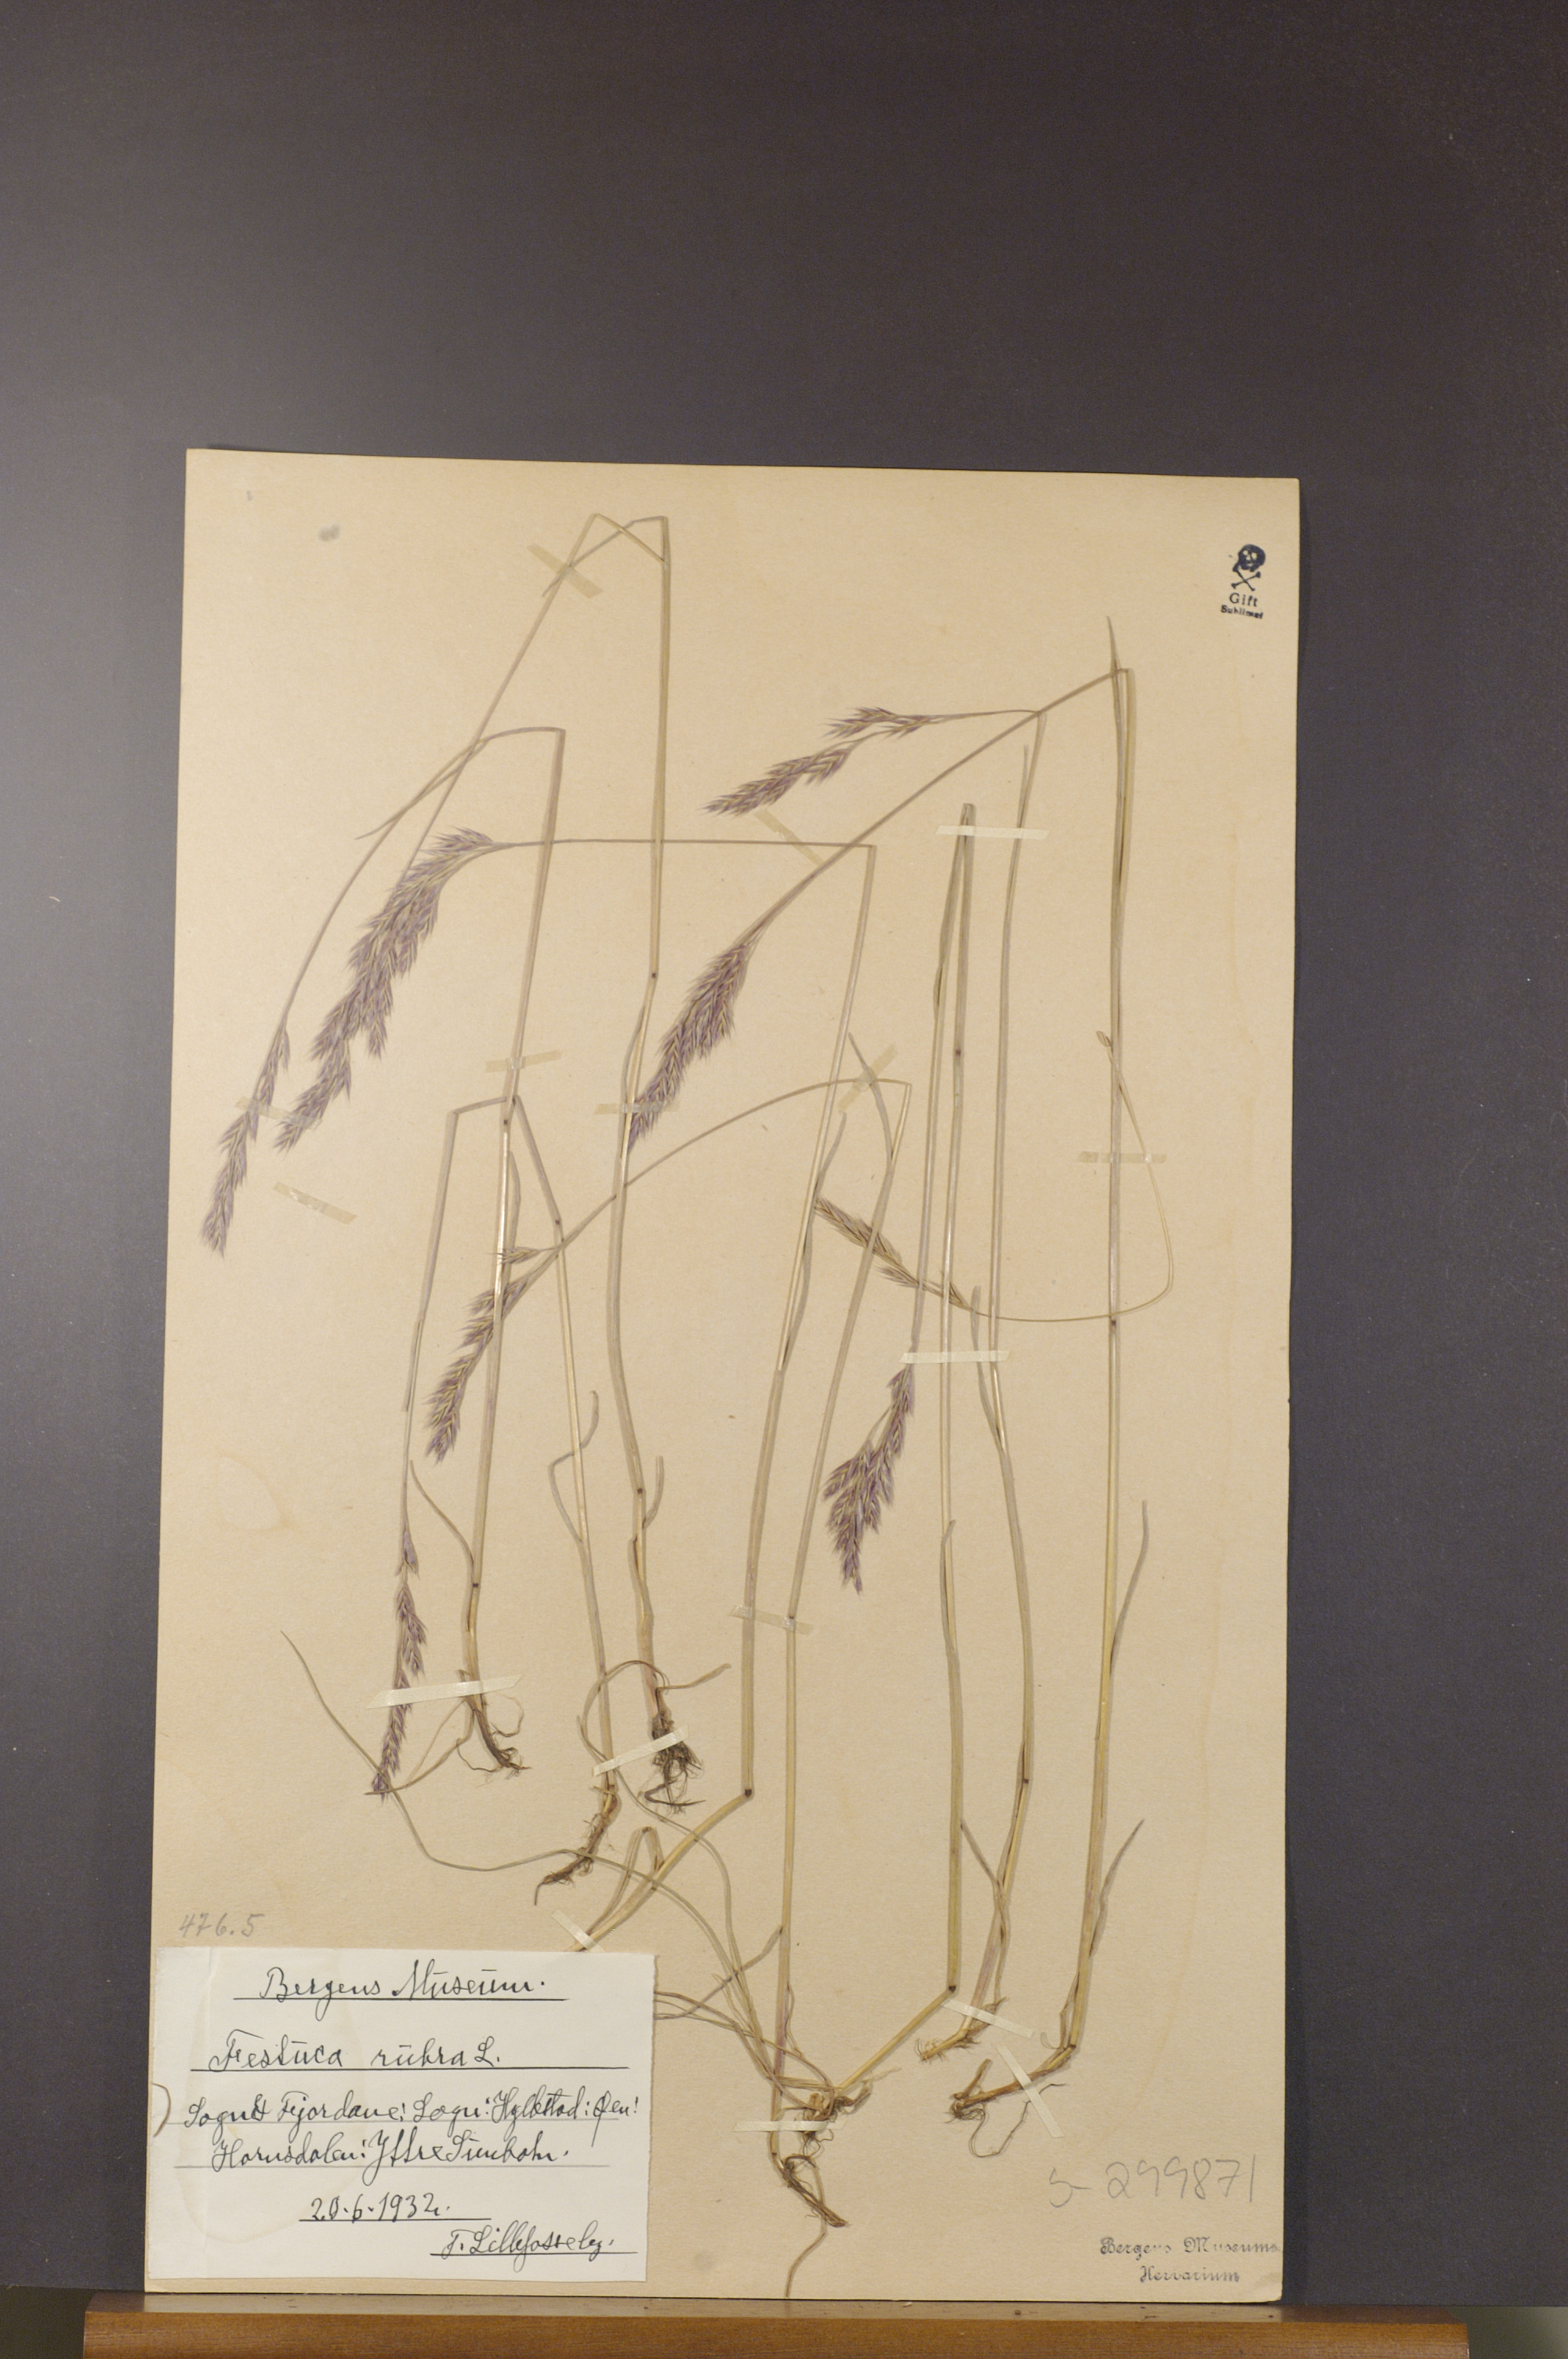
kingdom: Plantae
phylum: Tracheophyta
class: Liliopsida
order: Poales
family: Poaceae
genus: Festuca
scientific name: Festuca rubra
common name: Red fescue
